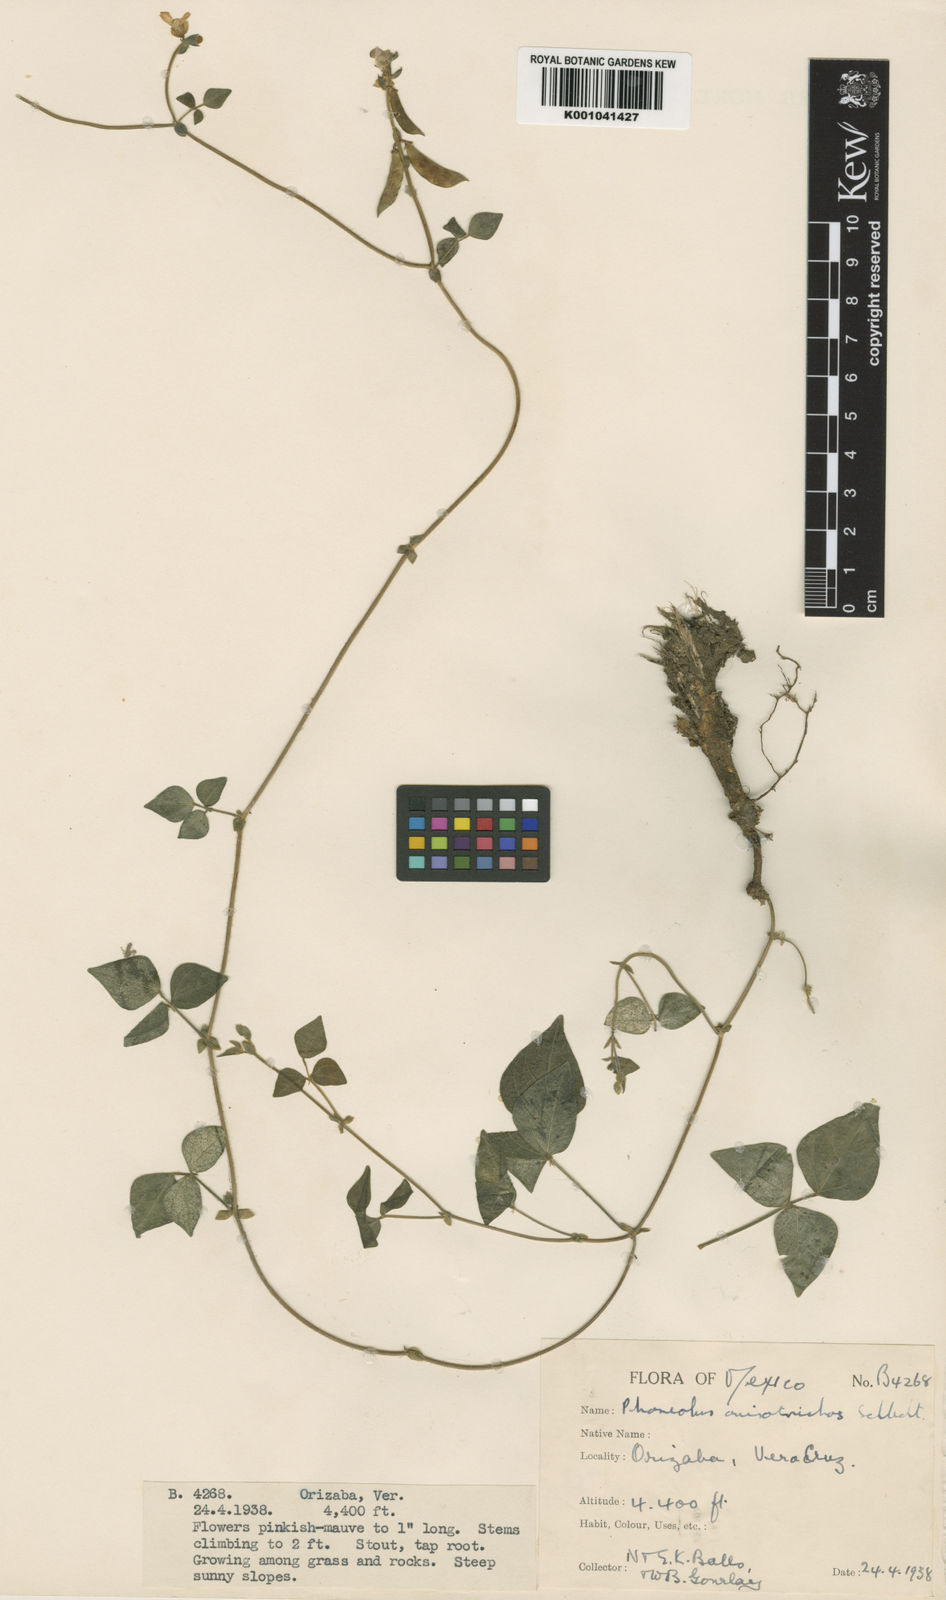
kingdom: Plantae
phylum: Tracheophyta
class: Magnoliopsida
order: Fabales
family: Fabaceae
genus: Phaseolus
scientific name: Phaseolus
